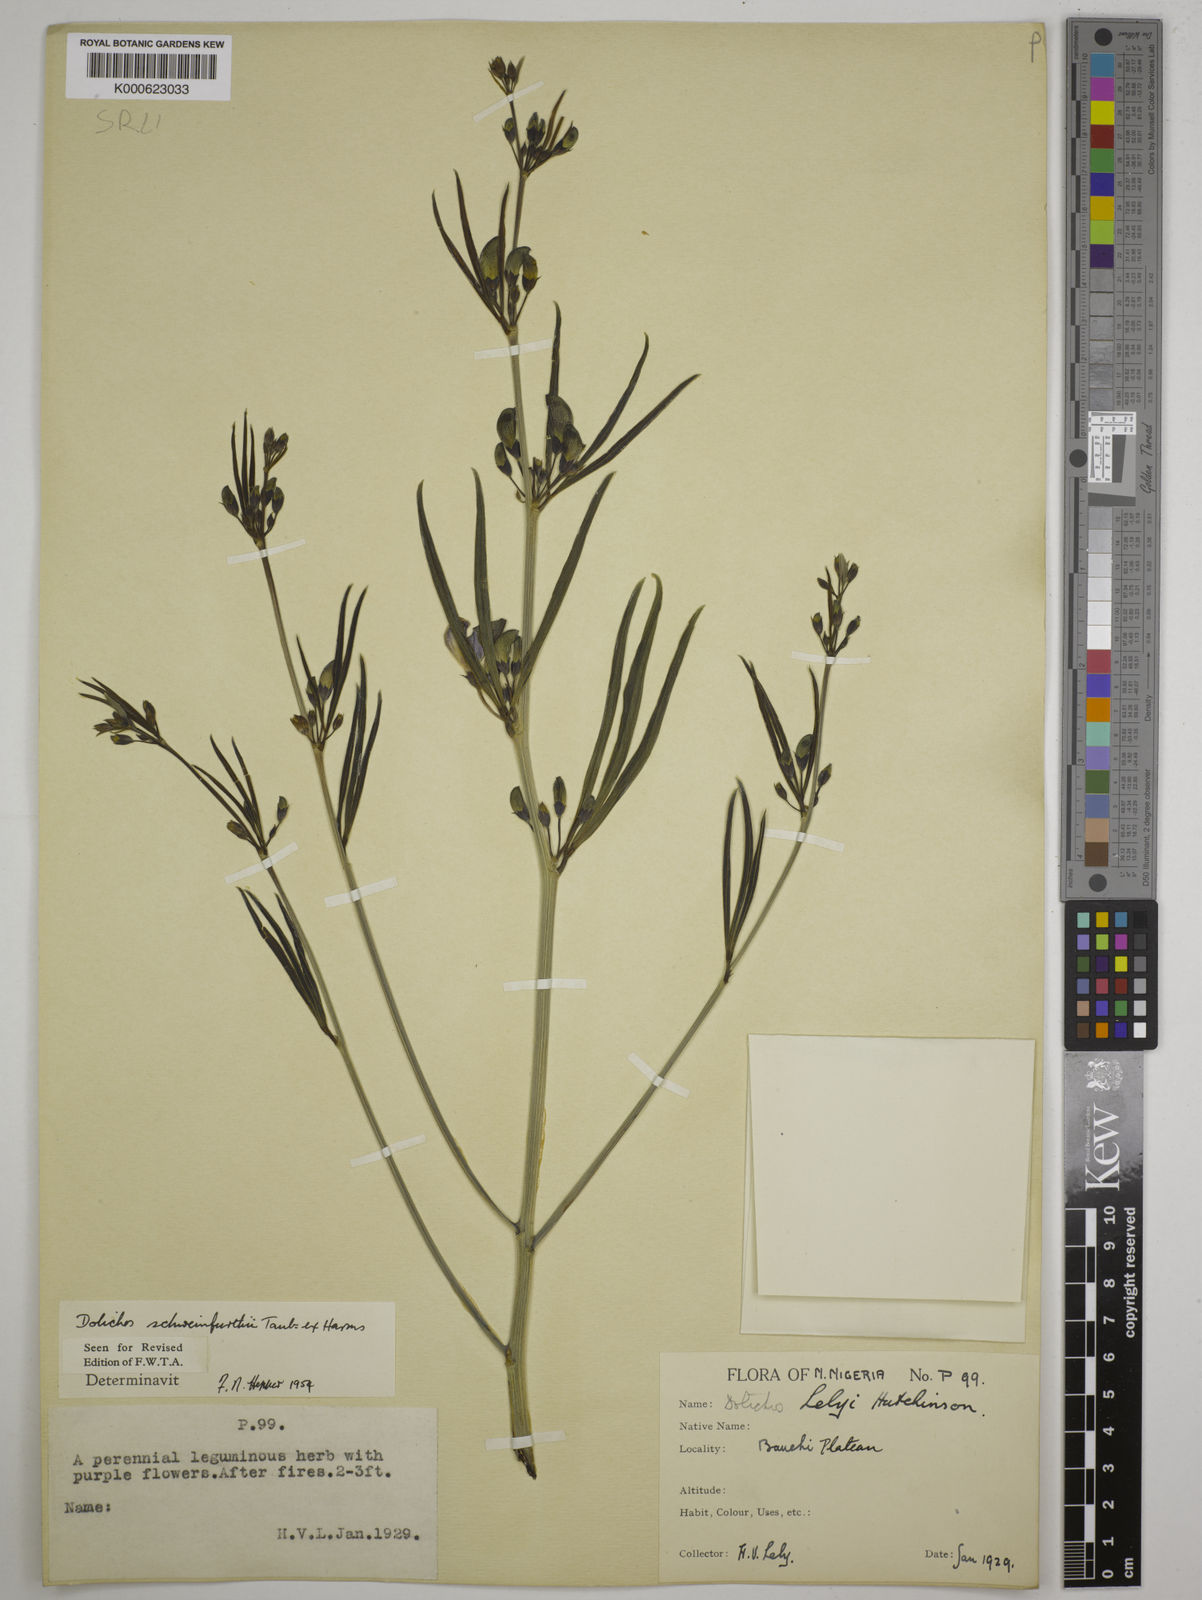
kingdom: Plantae
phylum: Tracheophyta
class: Magnoliopsida
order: Fabales
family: Fabaceae
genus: Dolichos
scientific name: Dolichos
